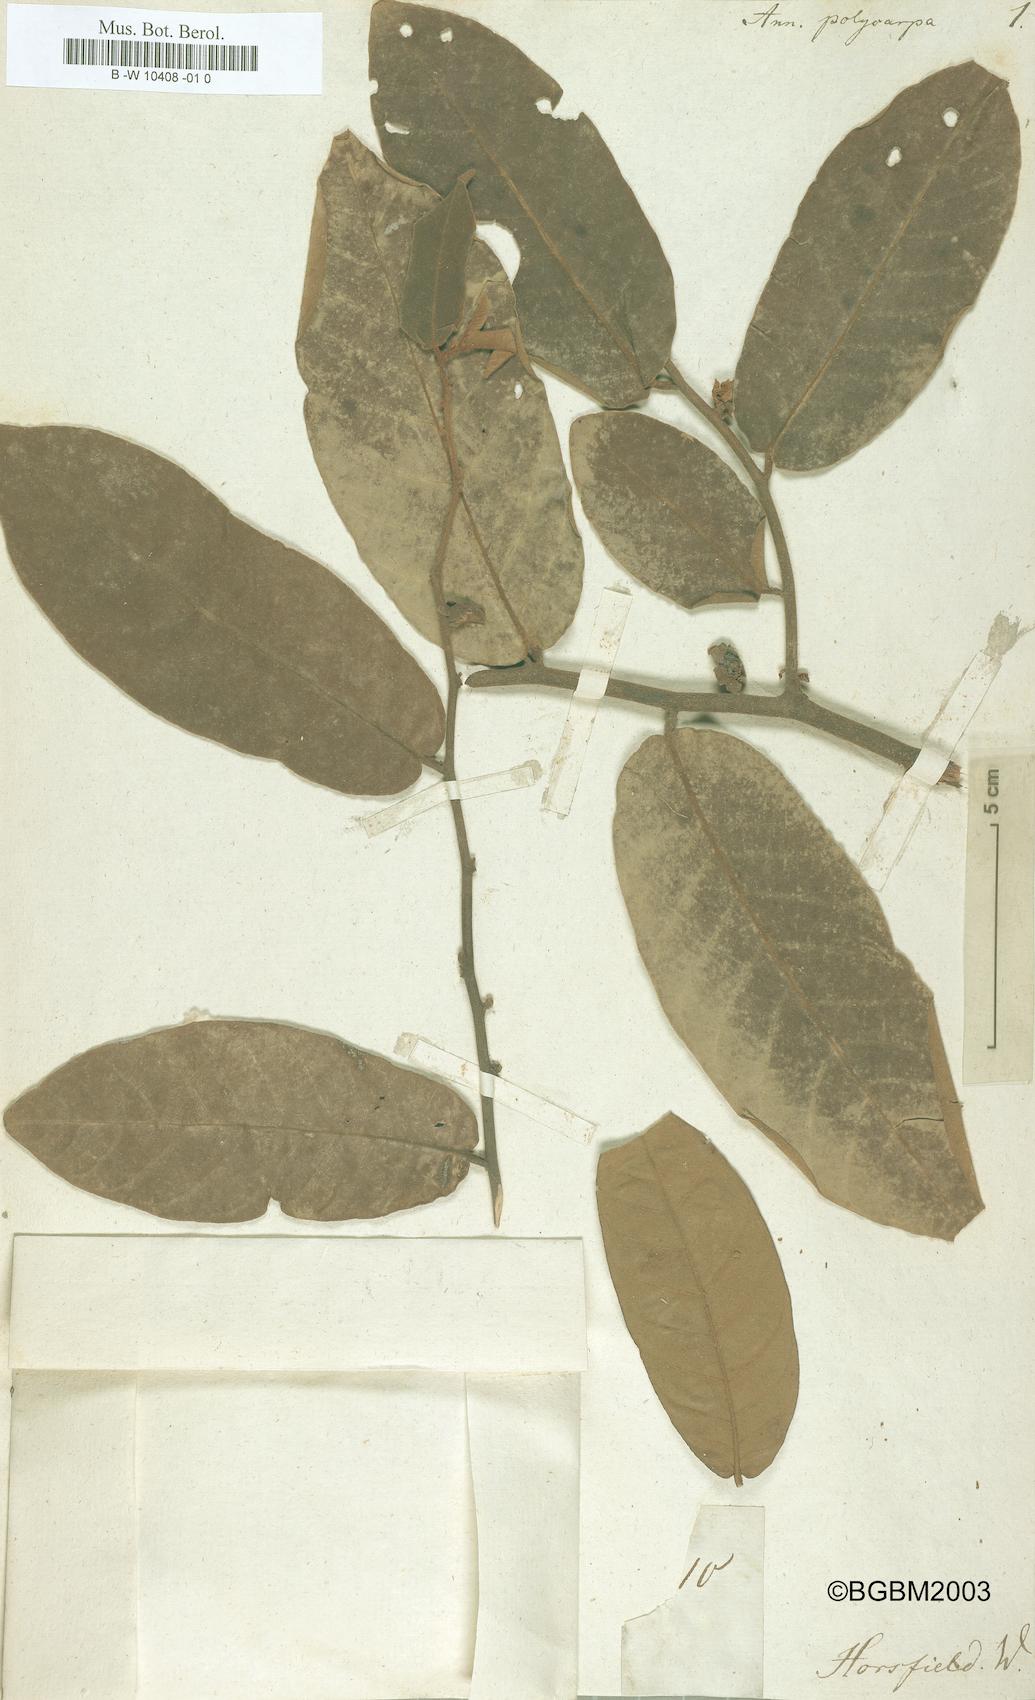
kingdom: Plantae
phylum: Tracheophyta
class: Magnoliopsida
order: Magnoliales
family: Annonaceae
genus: Annickia
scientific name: Annickia polycarpa
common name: African yellowwood
